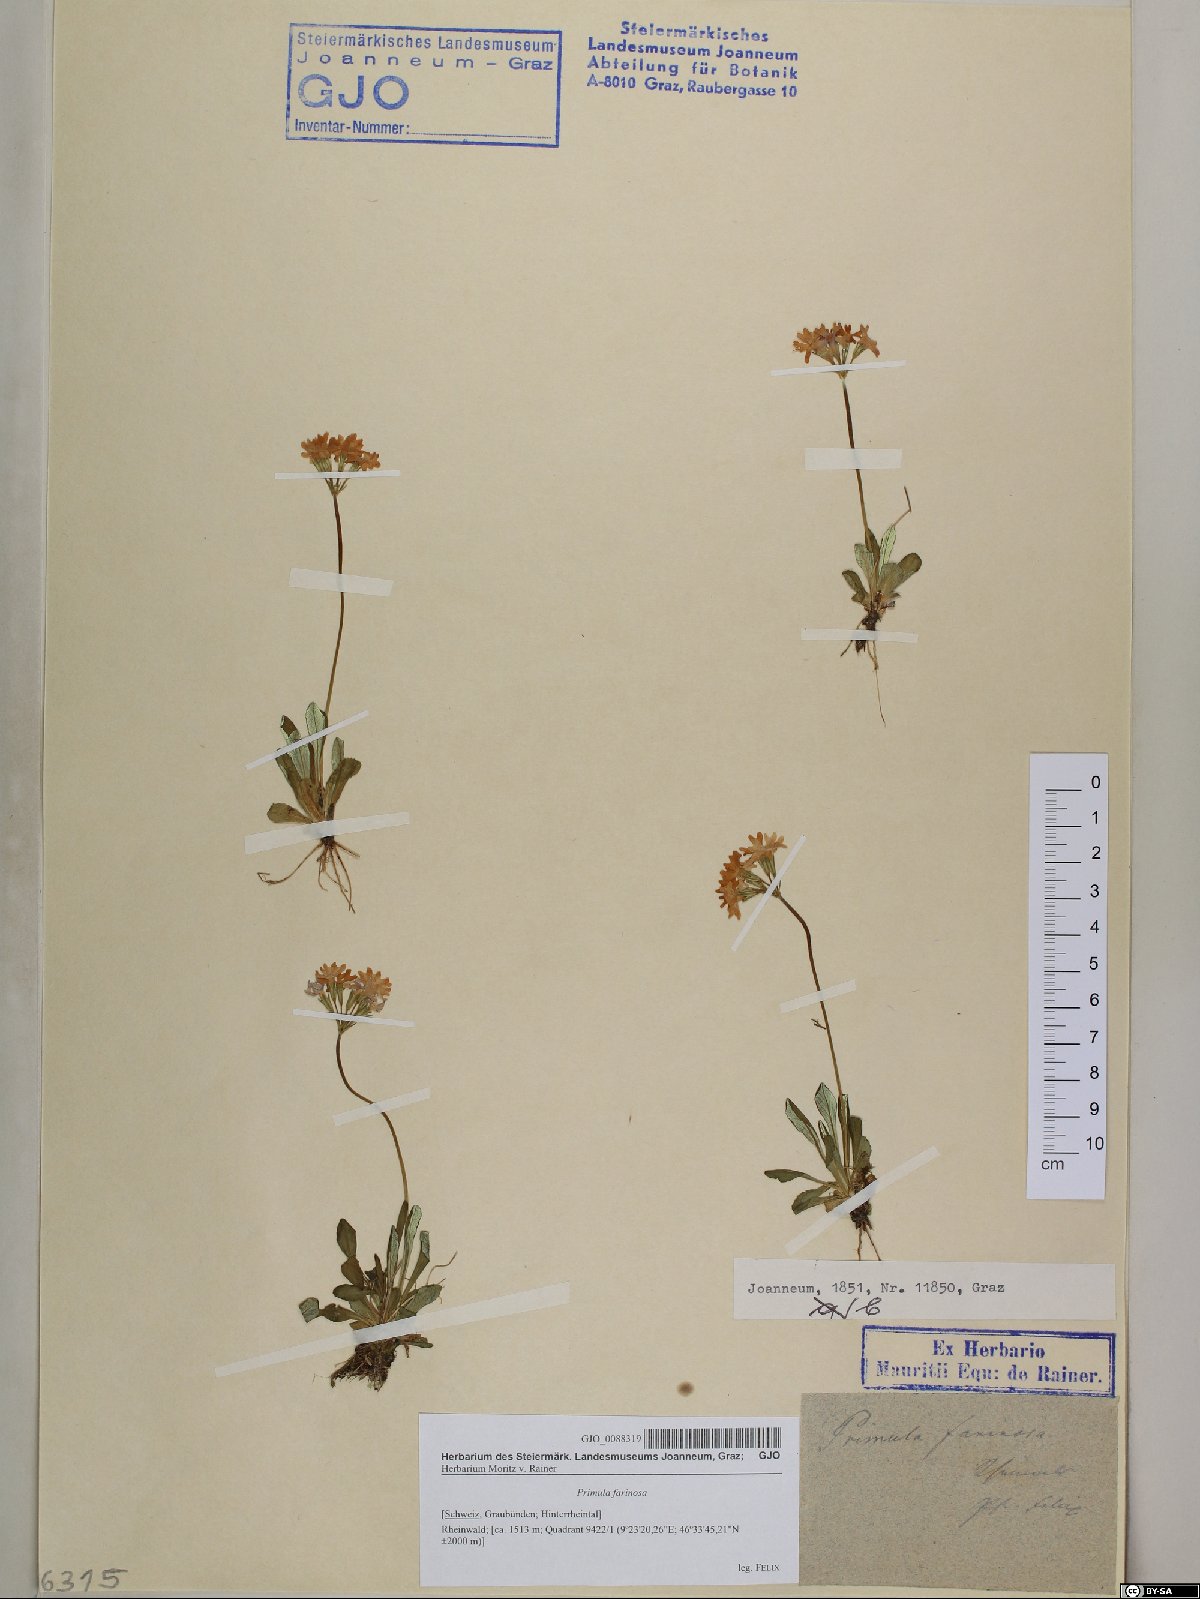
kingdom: Plantae
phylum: Tracheophyta
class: Magnoliopsida
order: Ericales
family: Primulaceae
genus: Primula
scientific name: Primula farinosa
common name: Bird's-eye primrose
